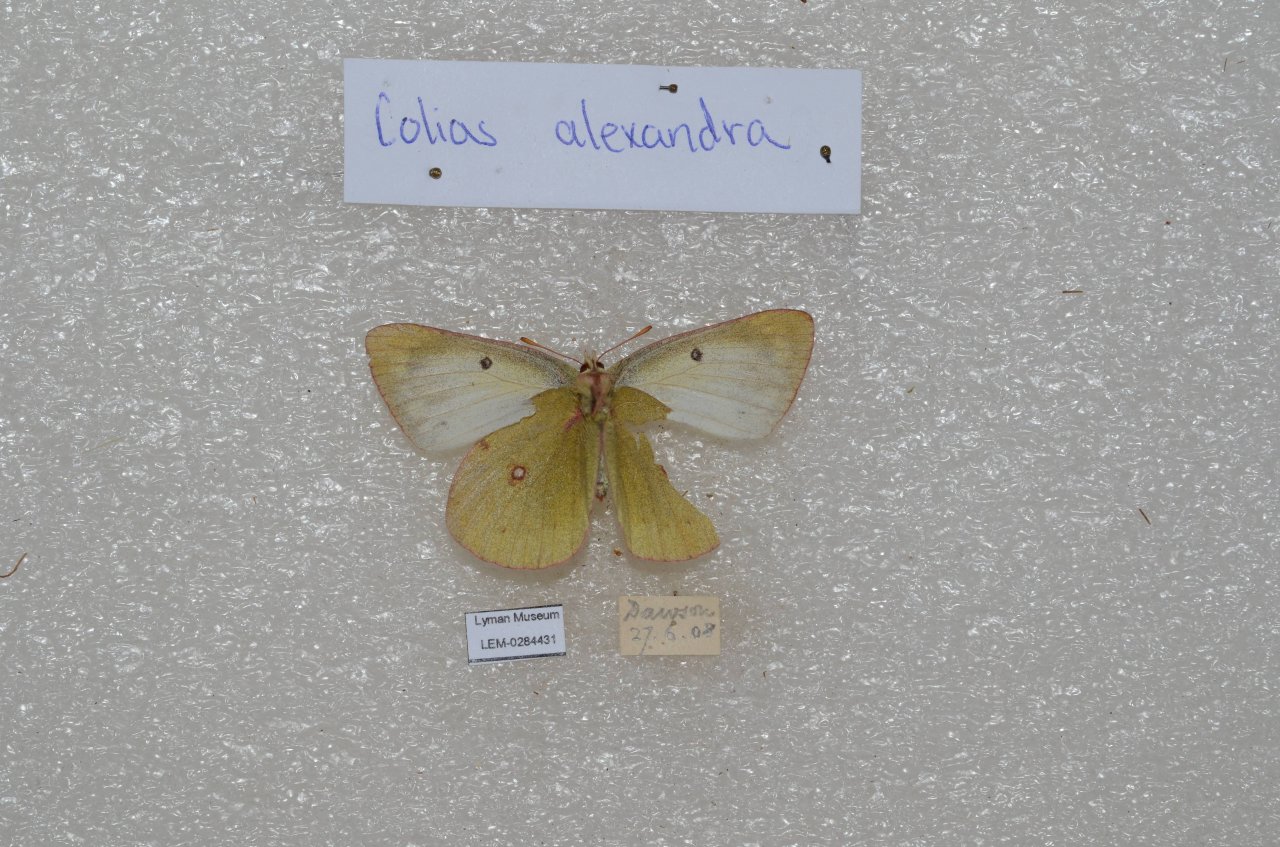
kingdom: Animalia
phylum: Arthropoda
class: Insecta
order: Lepidoptera
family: Pieridae
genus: Colias
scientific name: Colias
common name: Clouded Yellows
